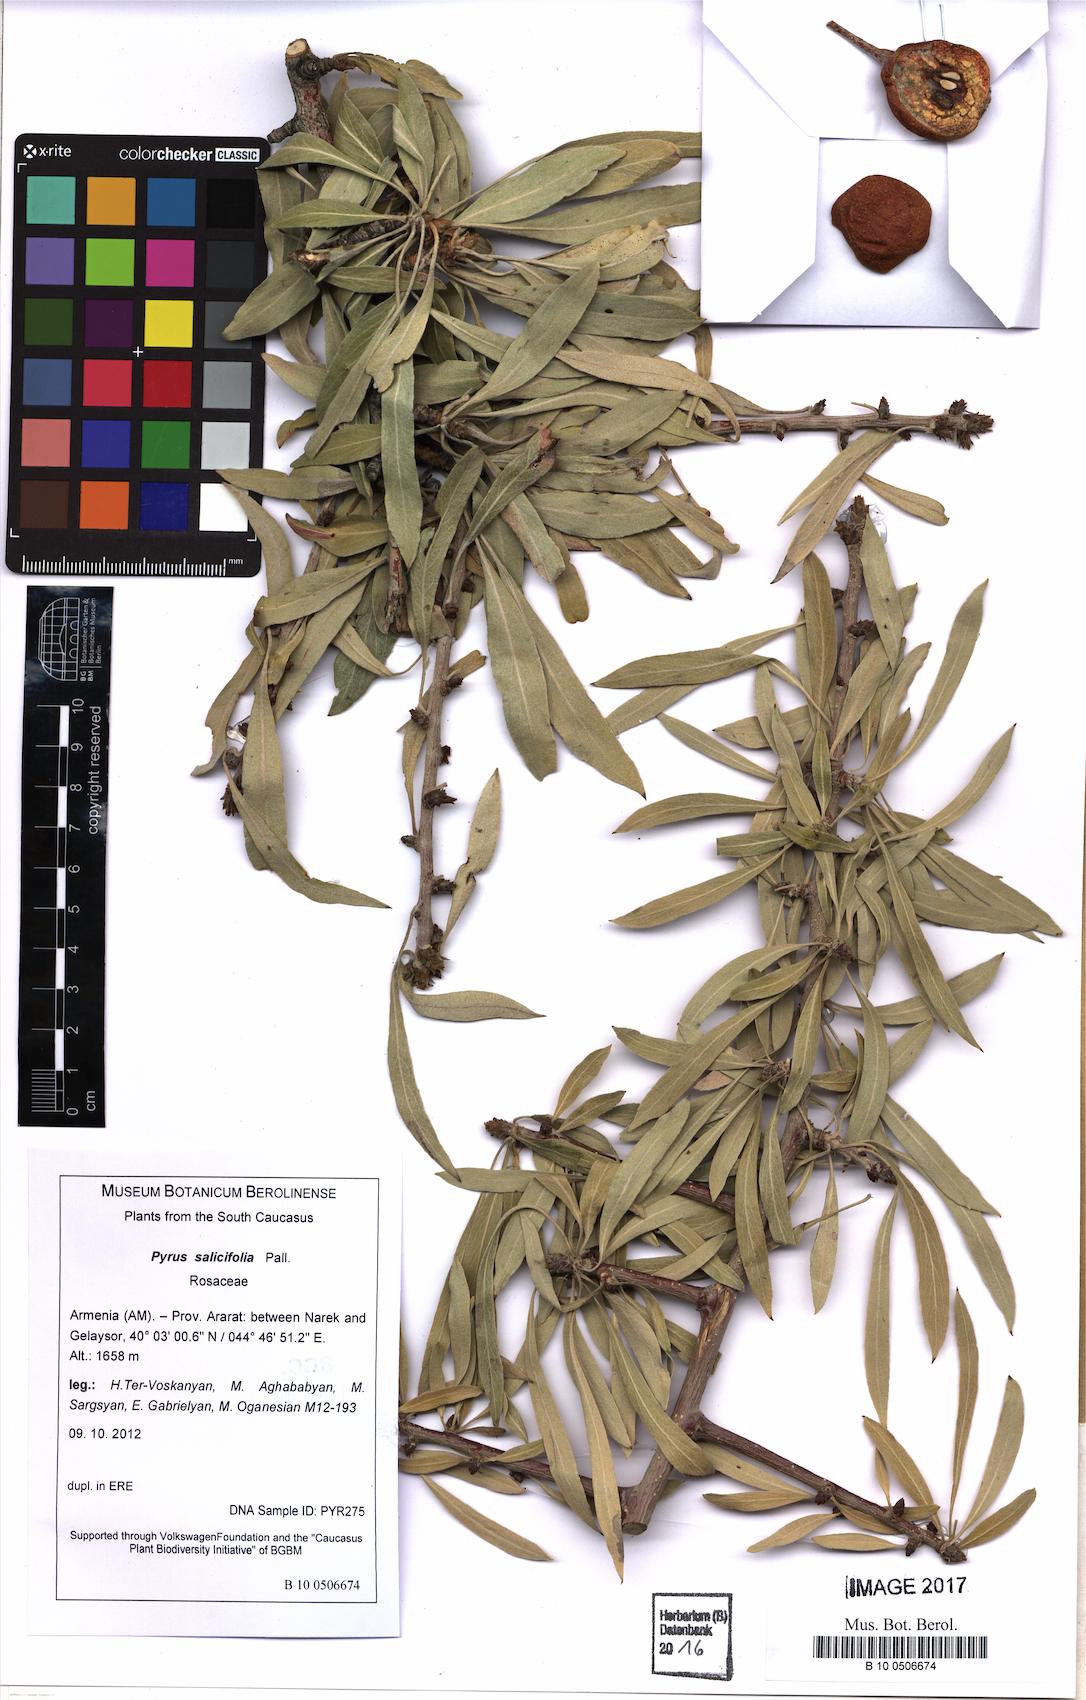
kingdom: Plantae
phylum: Tracheophyta
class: Magnoliopsida
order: Rosales
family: Rosaceae
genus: Pyrus
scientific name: Pyrus salicifolia
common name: Willow-leaved pear
